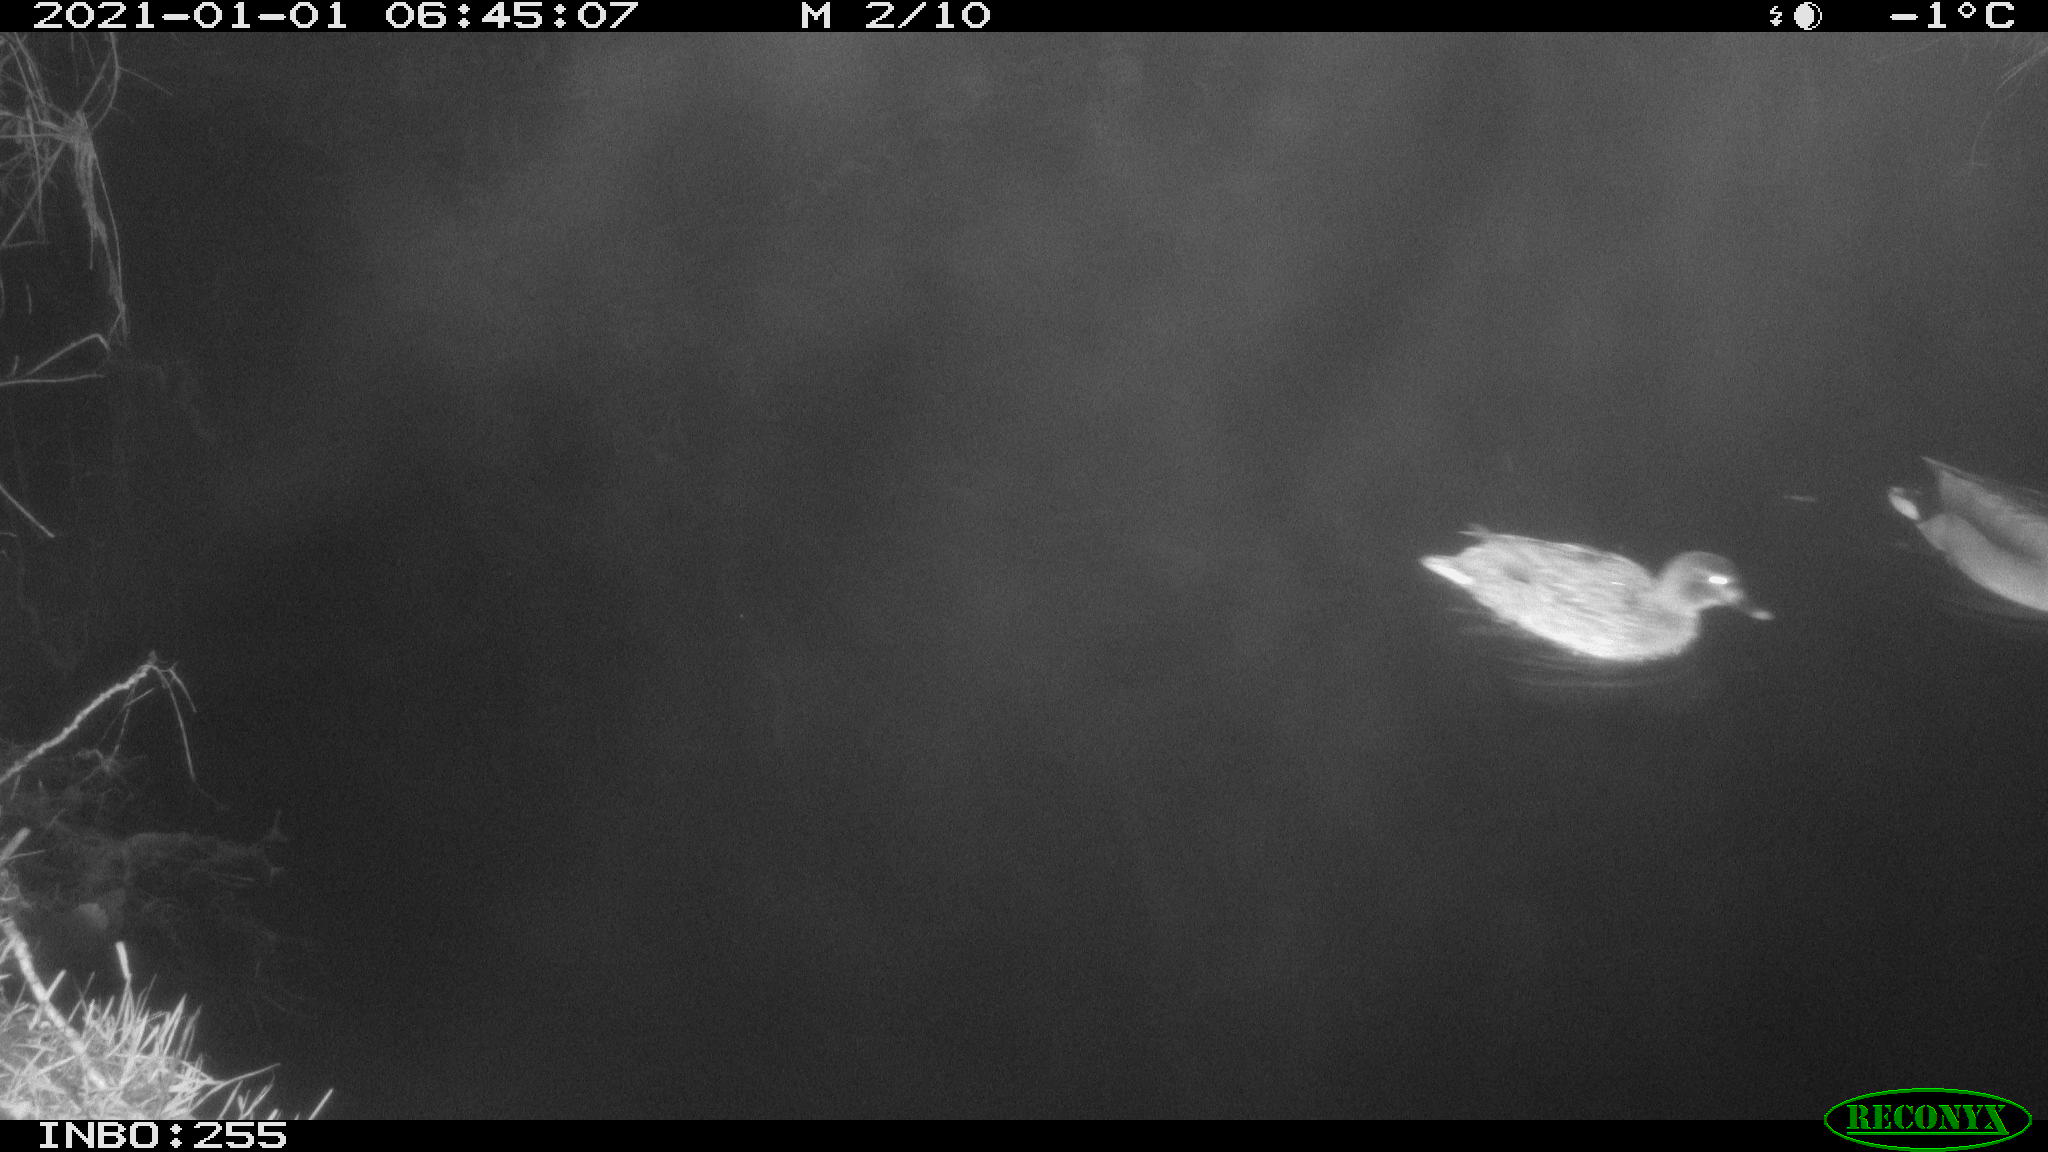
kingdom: Animalia
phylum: Chordata
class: Aves
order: Anseriformes
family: Anatidae
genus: Anas
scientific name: Anas platyrhynchos
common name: Mallard
